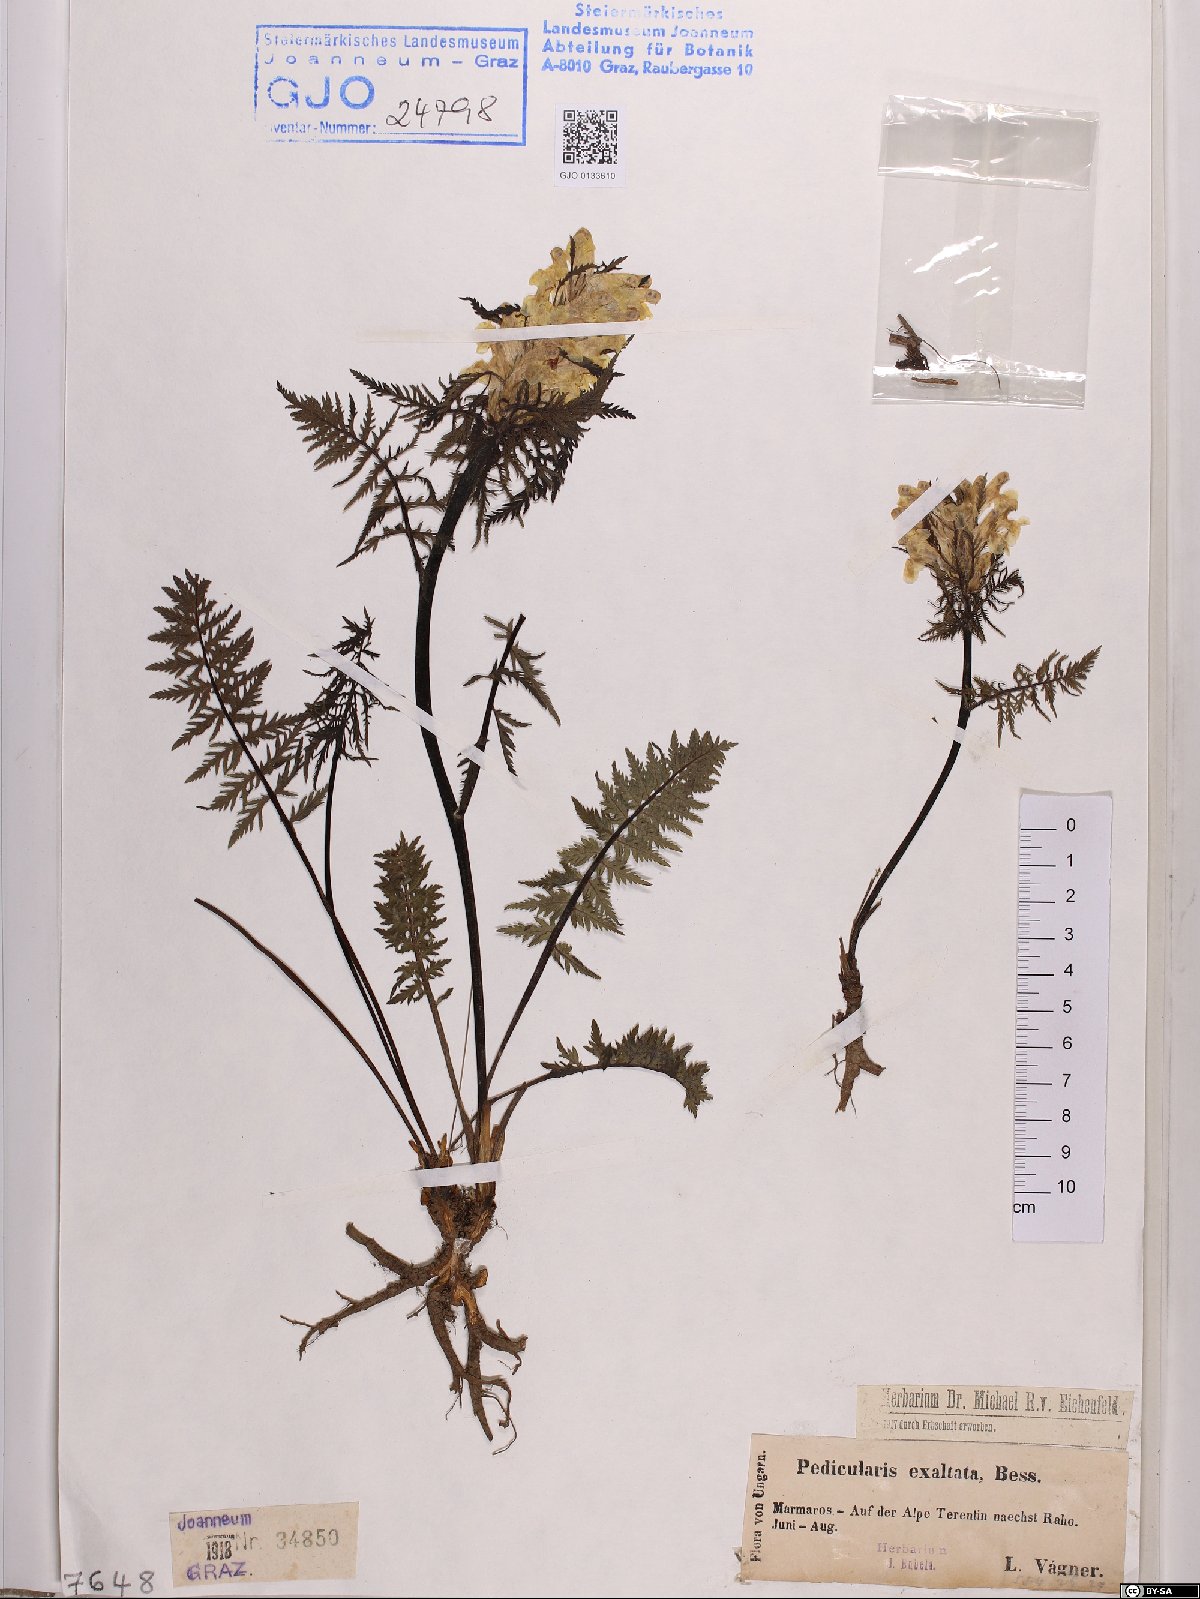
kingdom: Plantae
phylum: Tracheophyta
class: Magnoliopsida
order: Lamiales
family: Orobanchaceae
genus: Pedicularis
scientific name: Pedicularis exaltata
